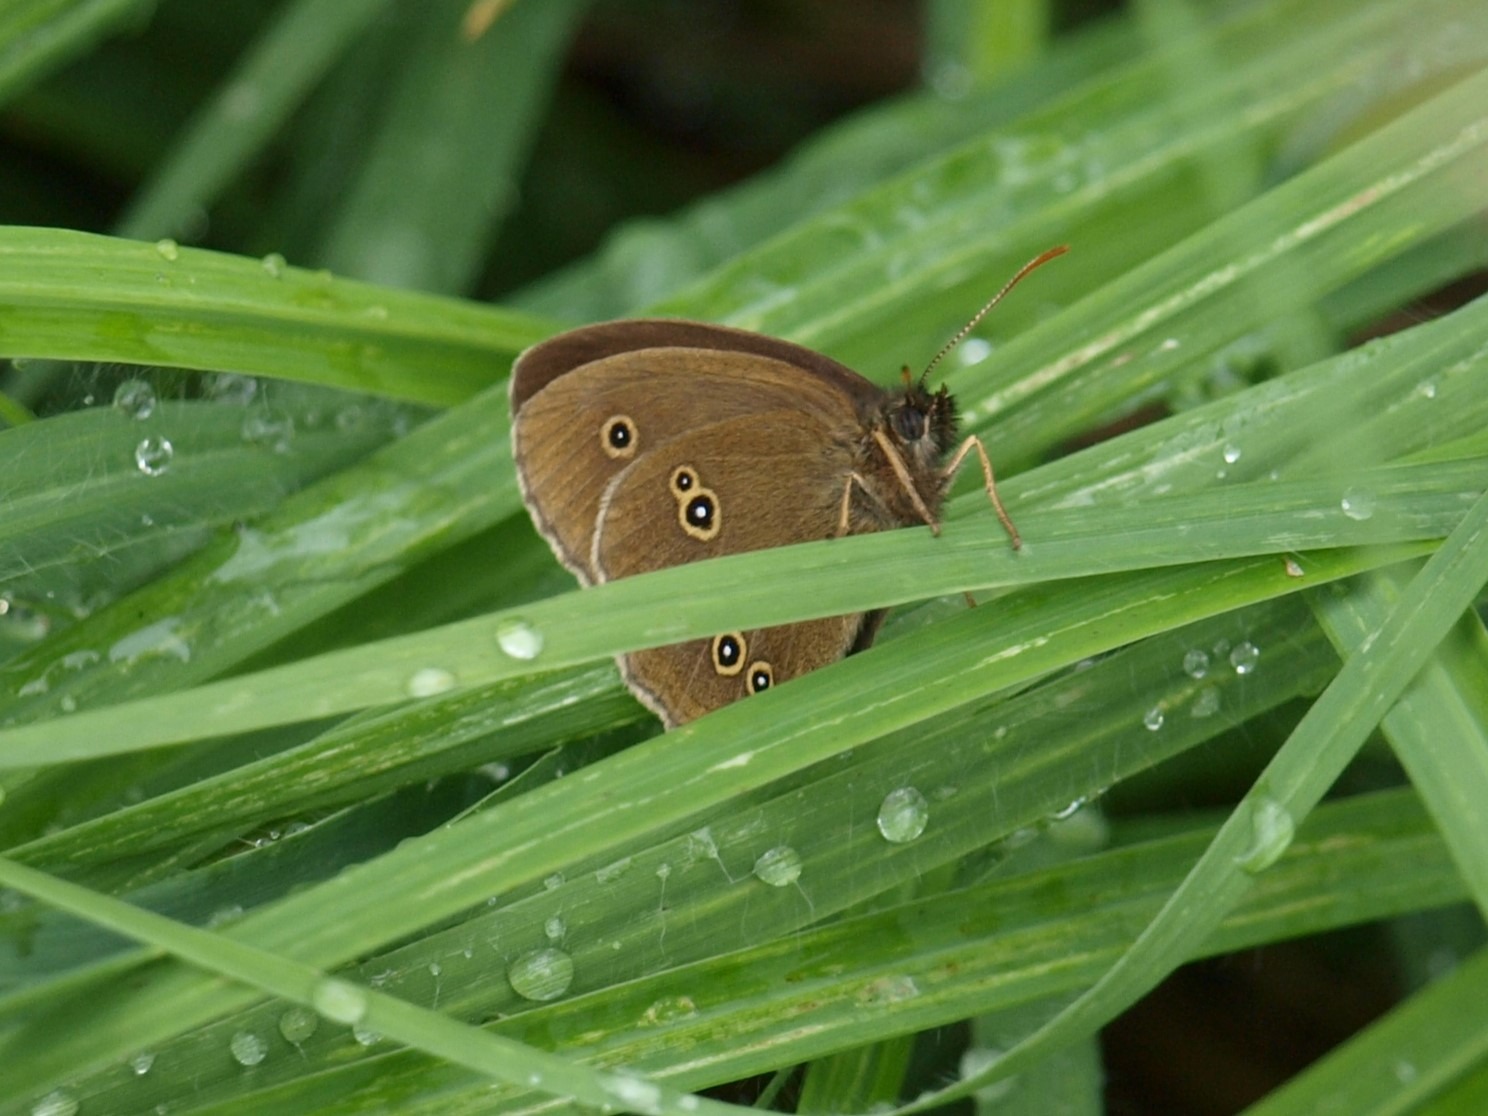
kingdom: Animalia
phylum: Arthropoda
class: Insecta
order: Lepidoptera
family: Nymphalidae
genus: Aphantopus
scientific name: Aphantopus hyperantus
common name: Engrandøje
